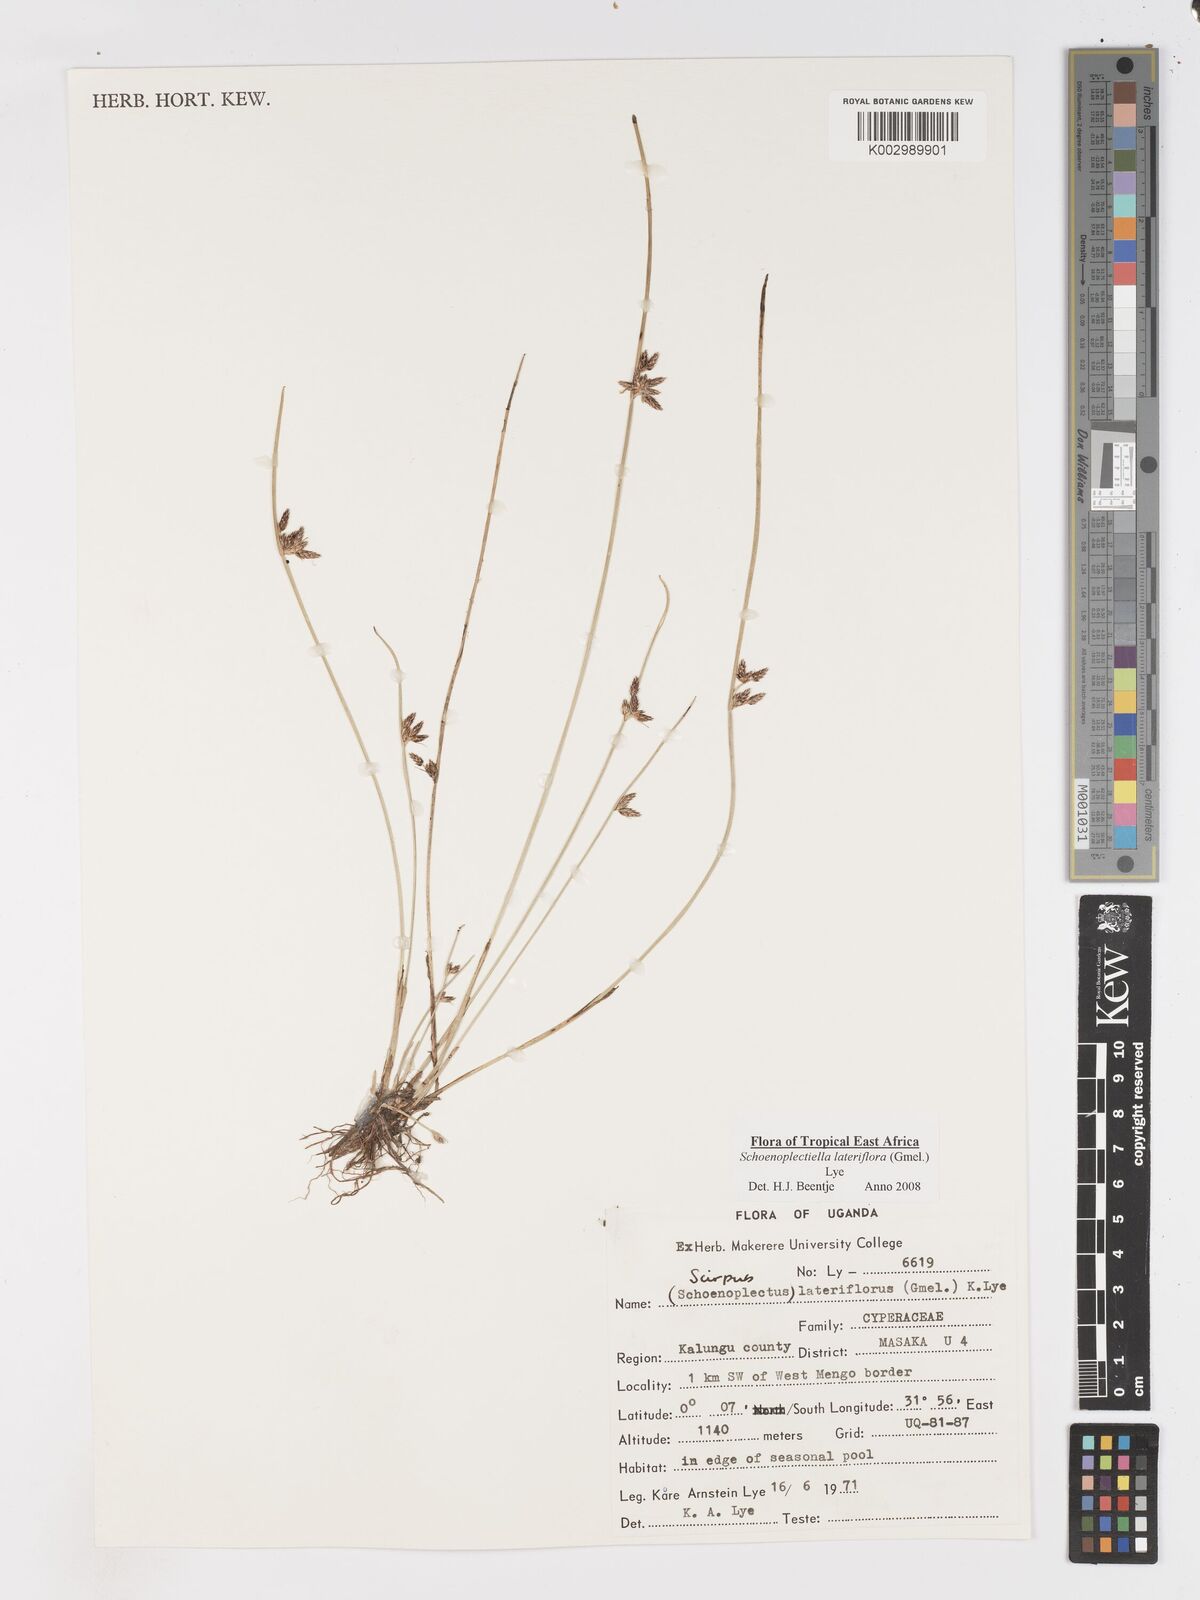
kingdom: Plantae
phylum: Tracheophyta
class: Liliopsida
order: Poales
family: Cyperaceae
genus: Schoenoplectiella
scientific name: Schoenoplectiella lateriflora
